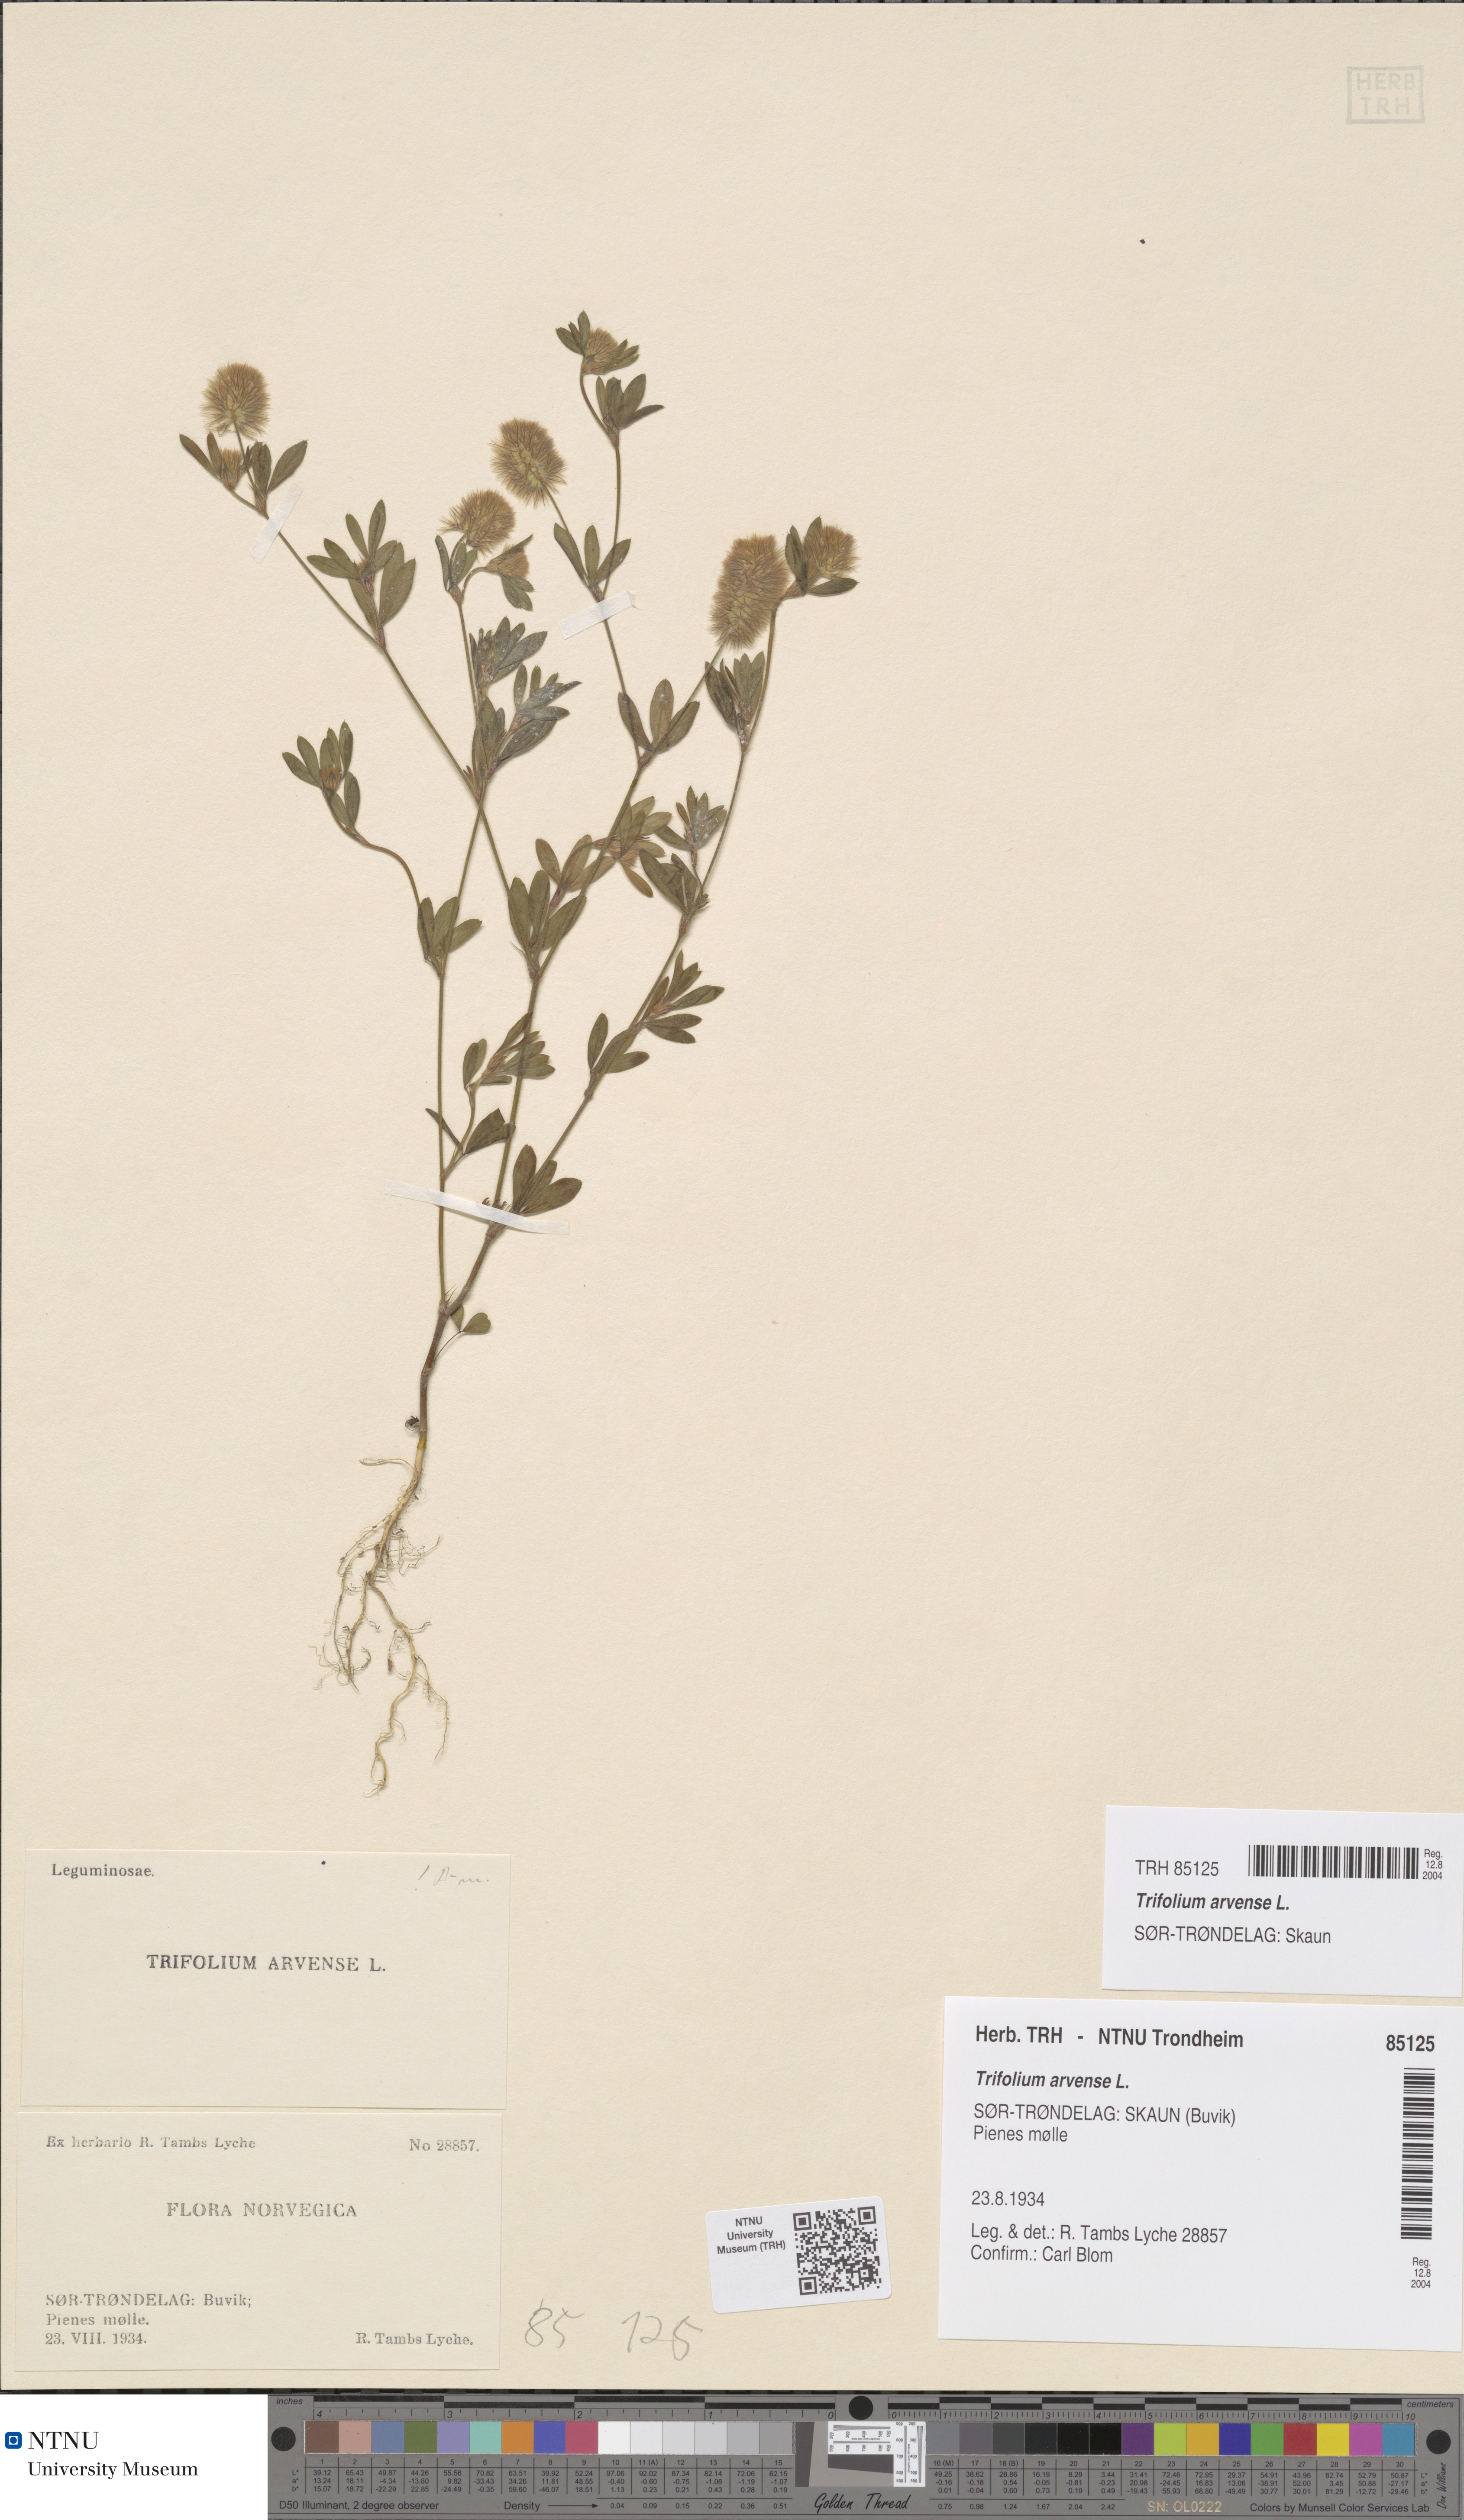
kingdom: Plantae
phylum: Tracheophyta
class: Magnoliopsida
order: Fabales
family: Fabaceae
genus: Trifolium
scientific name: Trifolium arvense
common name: Hare's-foot clover
